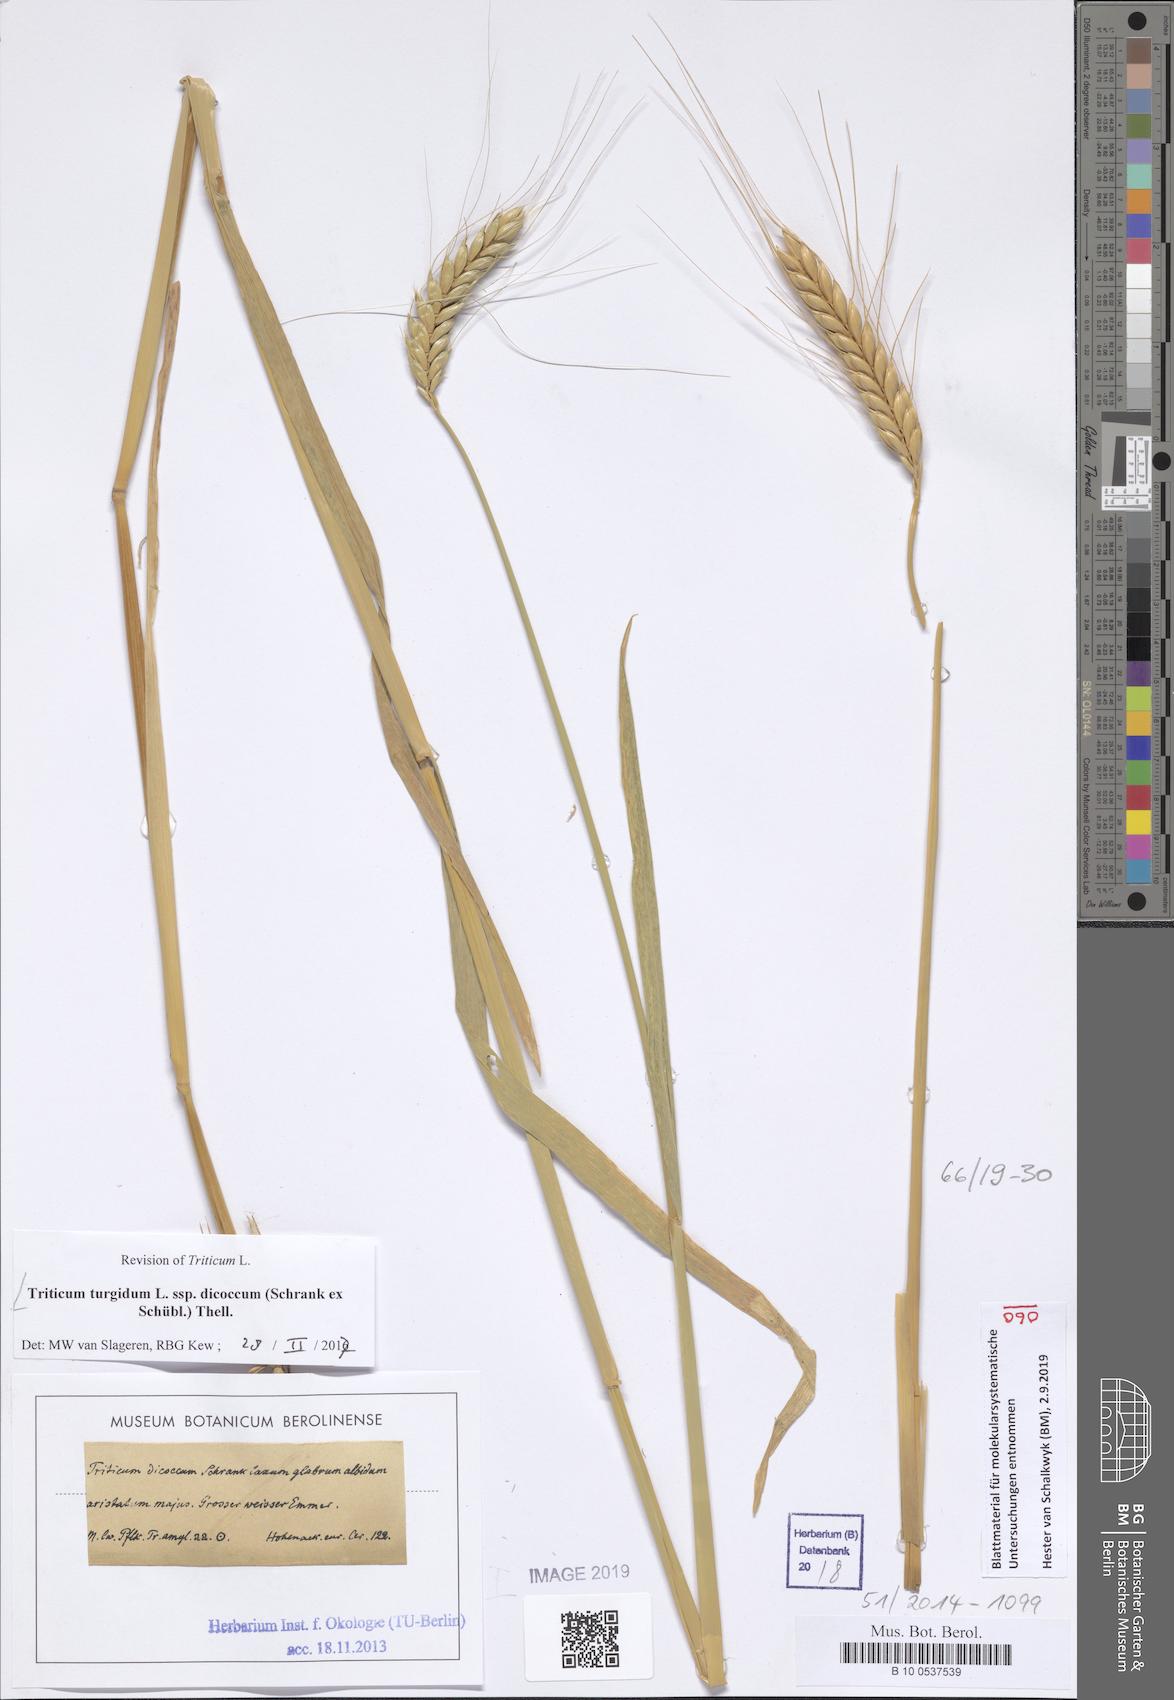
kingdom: Plantae
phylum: Tracheophyta
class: Liliopsida
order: Poales
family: Poaceae
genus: Triticum
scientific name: Triticum turgidum
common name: Rivet wheat
